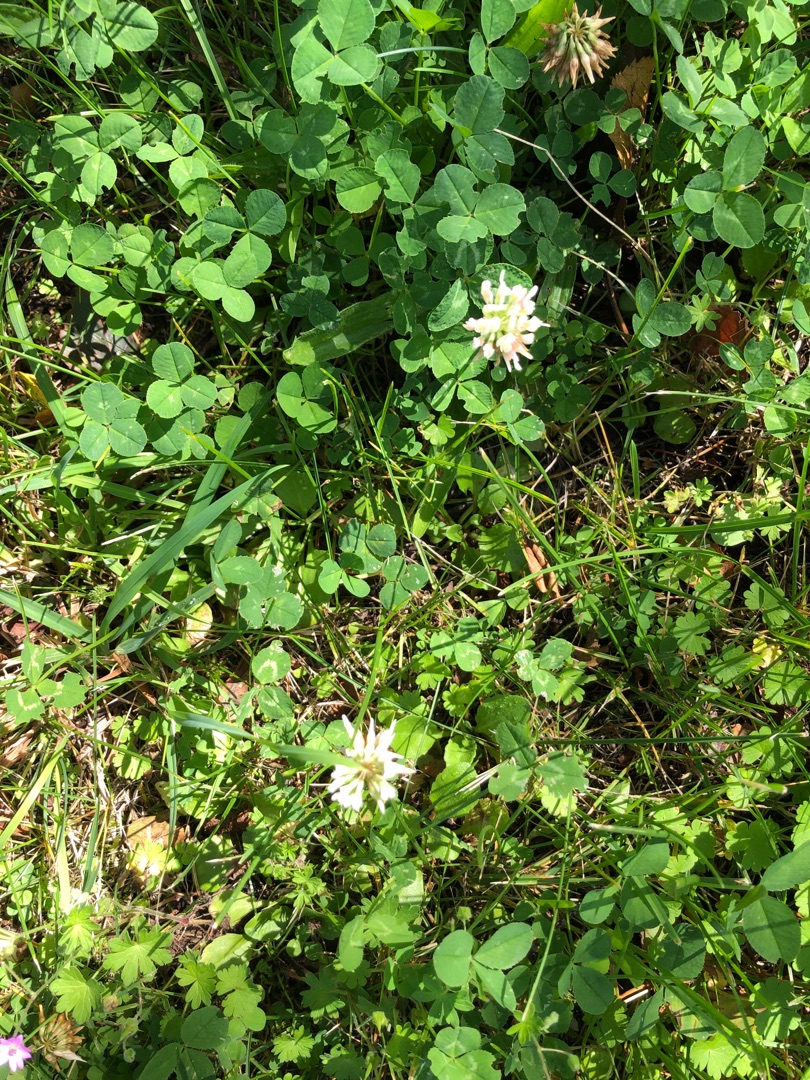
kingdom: Plantae
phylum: Tracheophyta
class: Magnoliopsida
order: Fabales
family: Fabaceae
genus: Trifolium
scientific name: Trifolium repens
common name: Hvid-kløver
